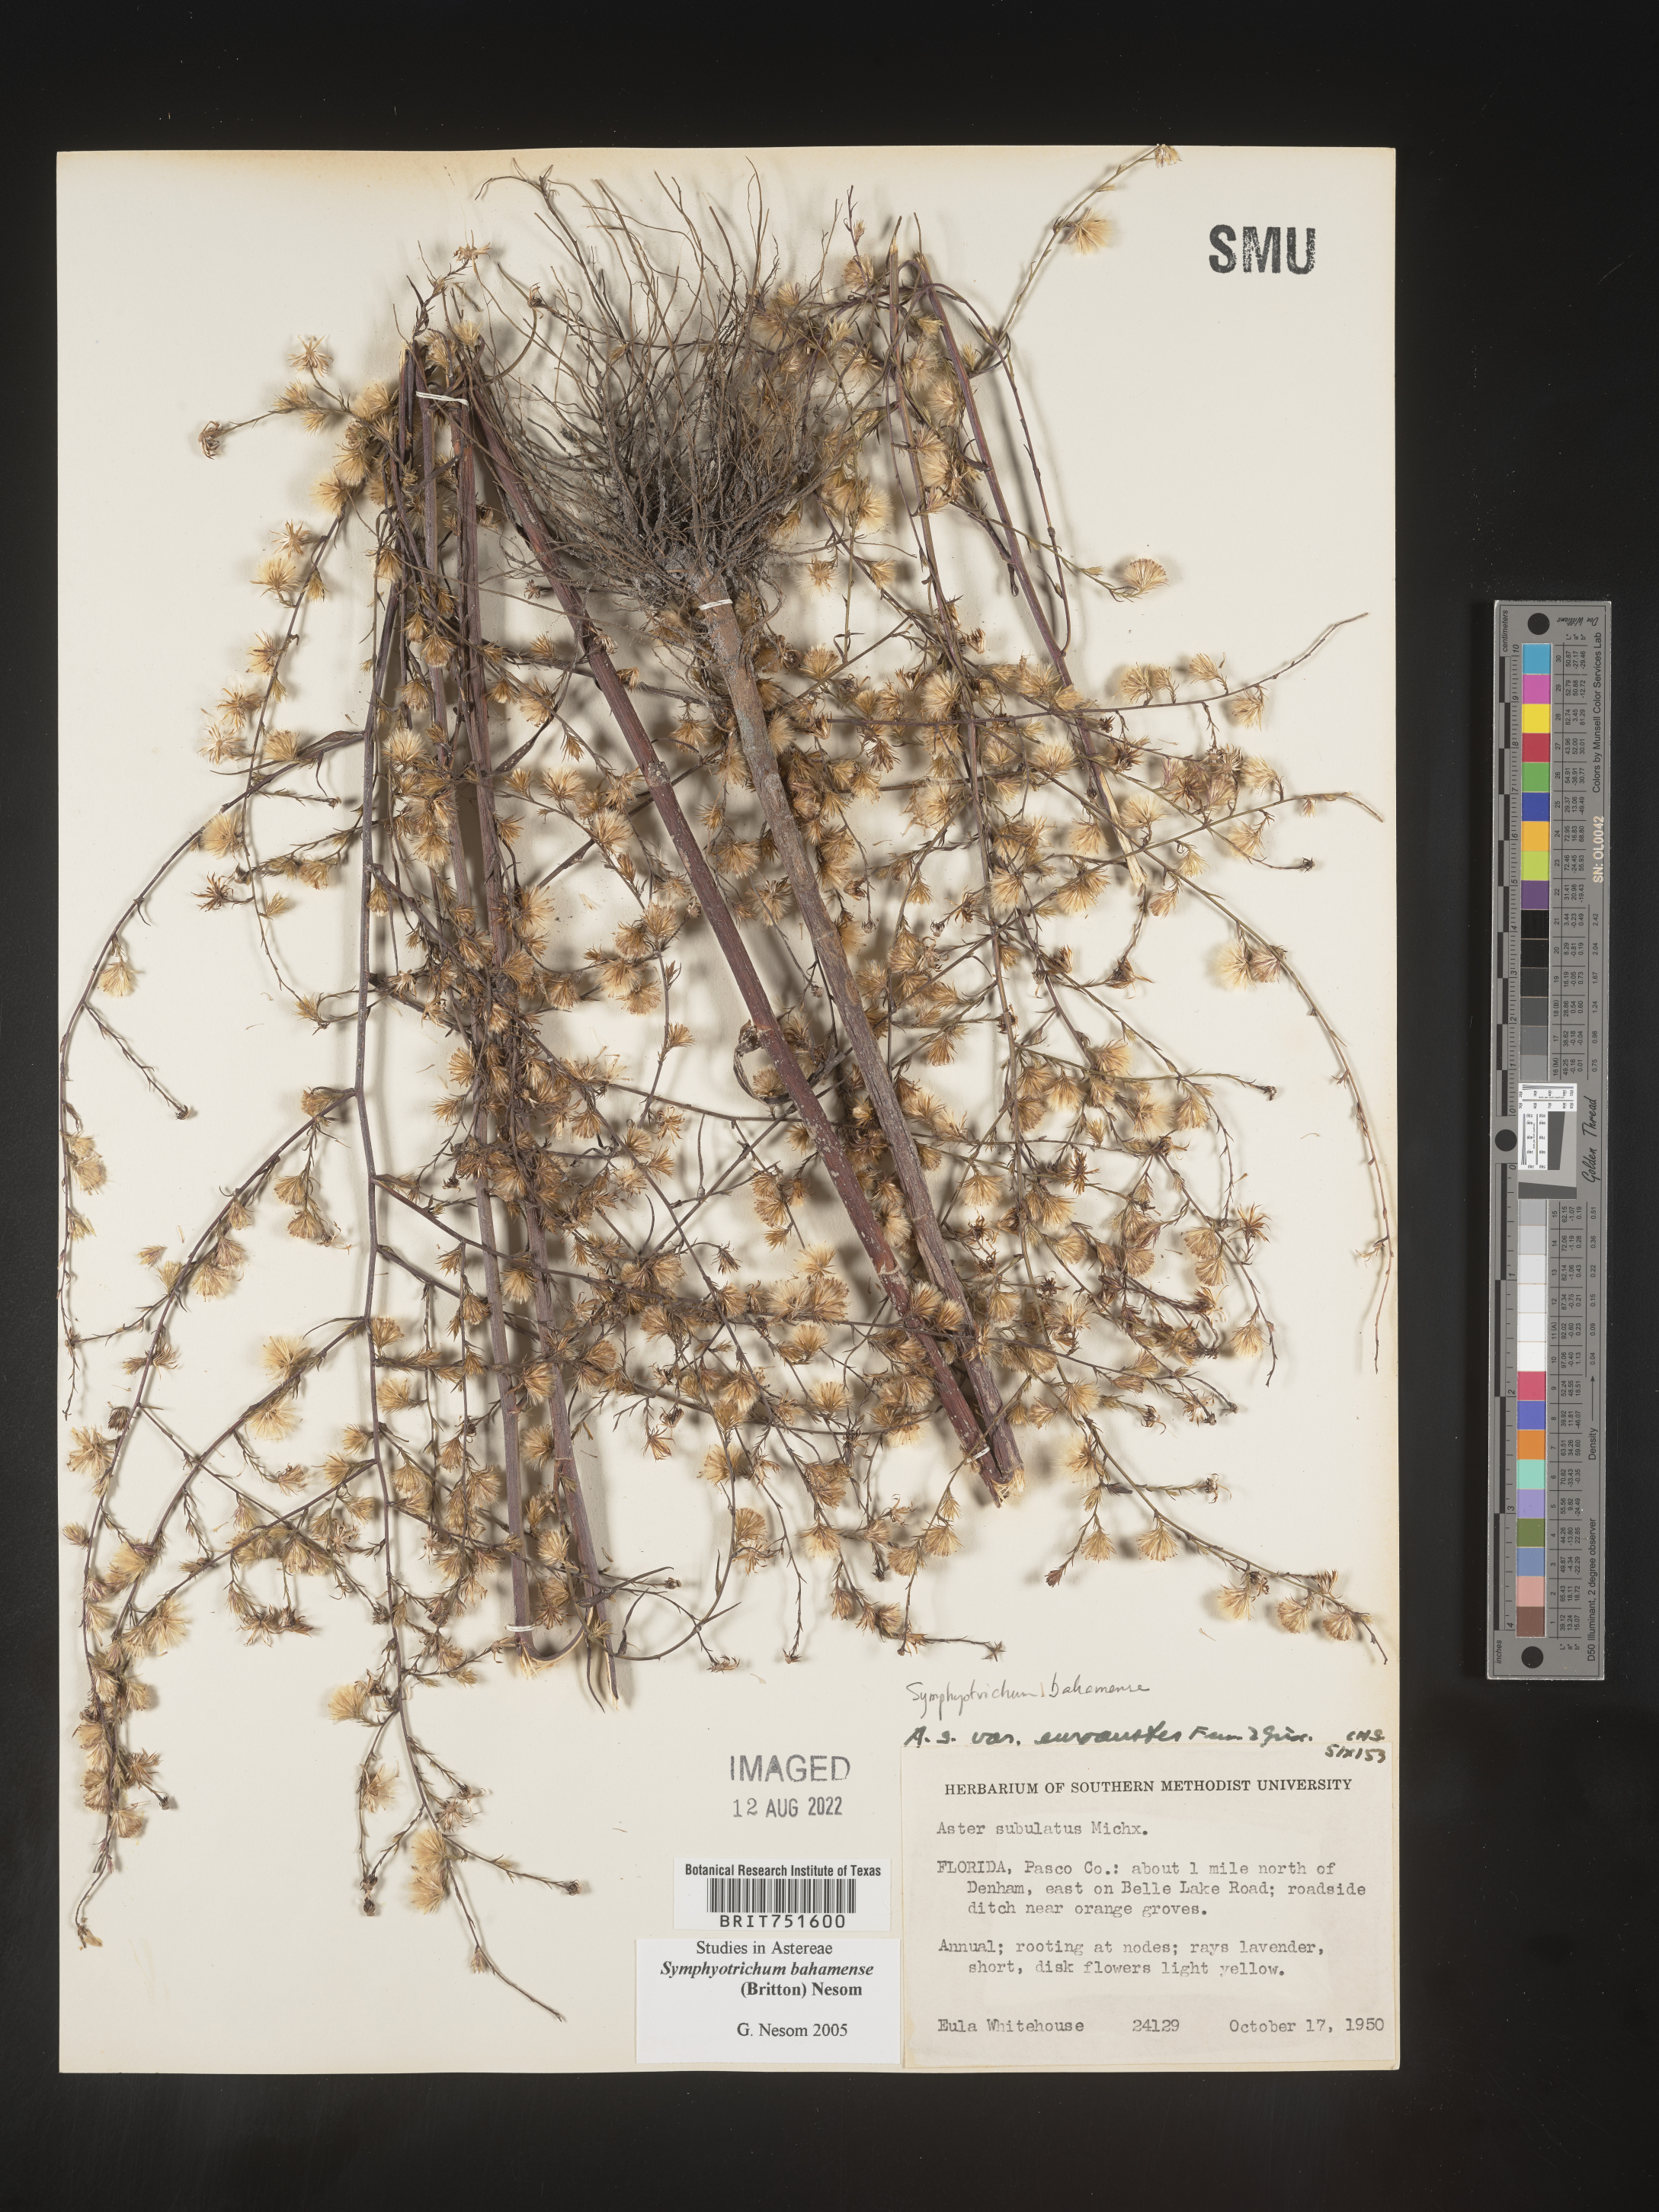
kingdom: Plantae
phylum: Tracheophyta
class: Magnoliopsida
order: Asterales
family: Asteraceae
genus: Symphyotrichum
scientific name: Symphyotrichum subulatum
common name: Annual saltmarsh aster
